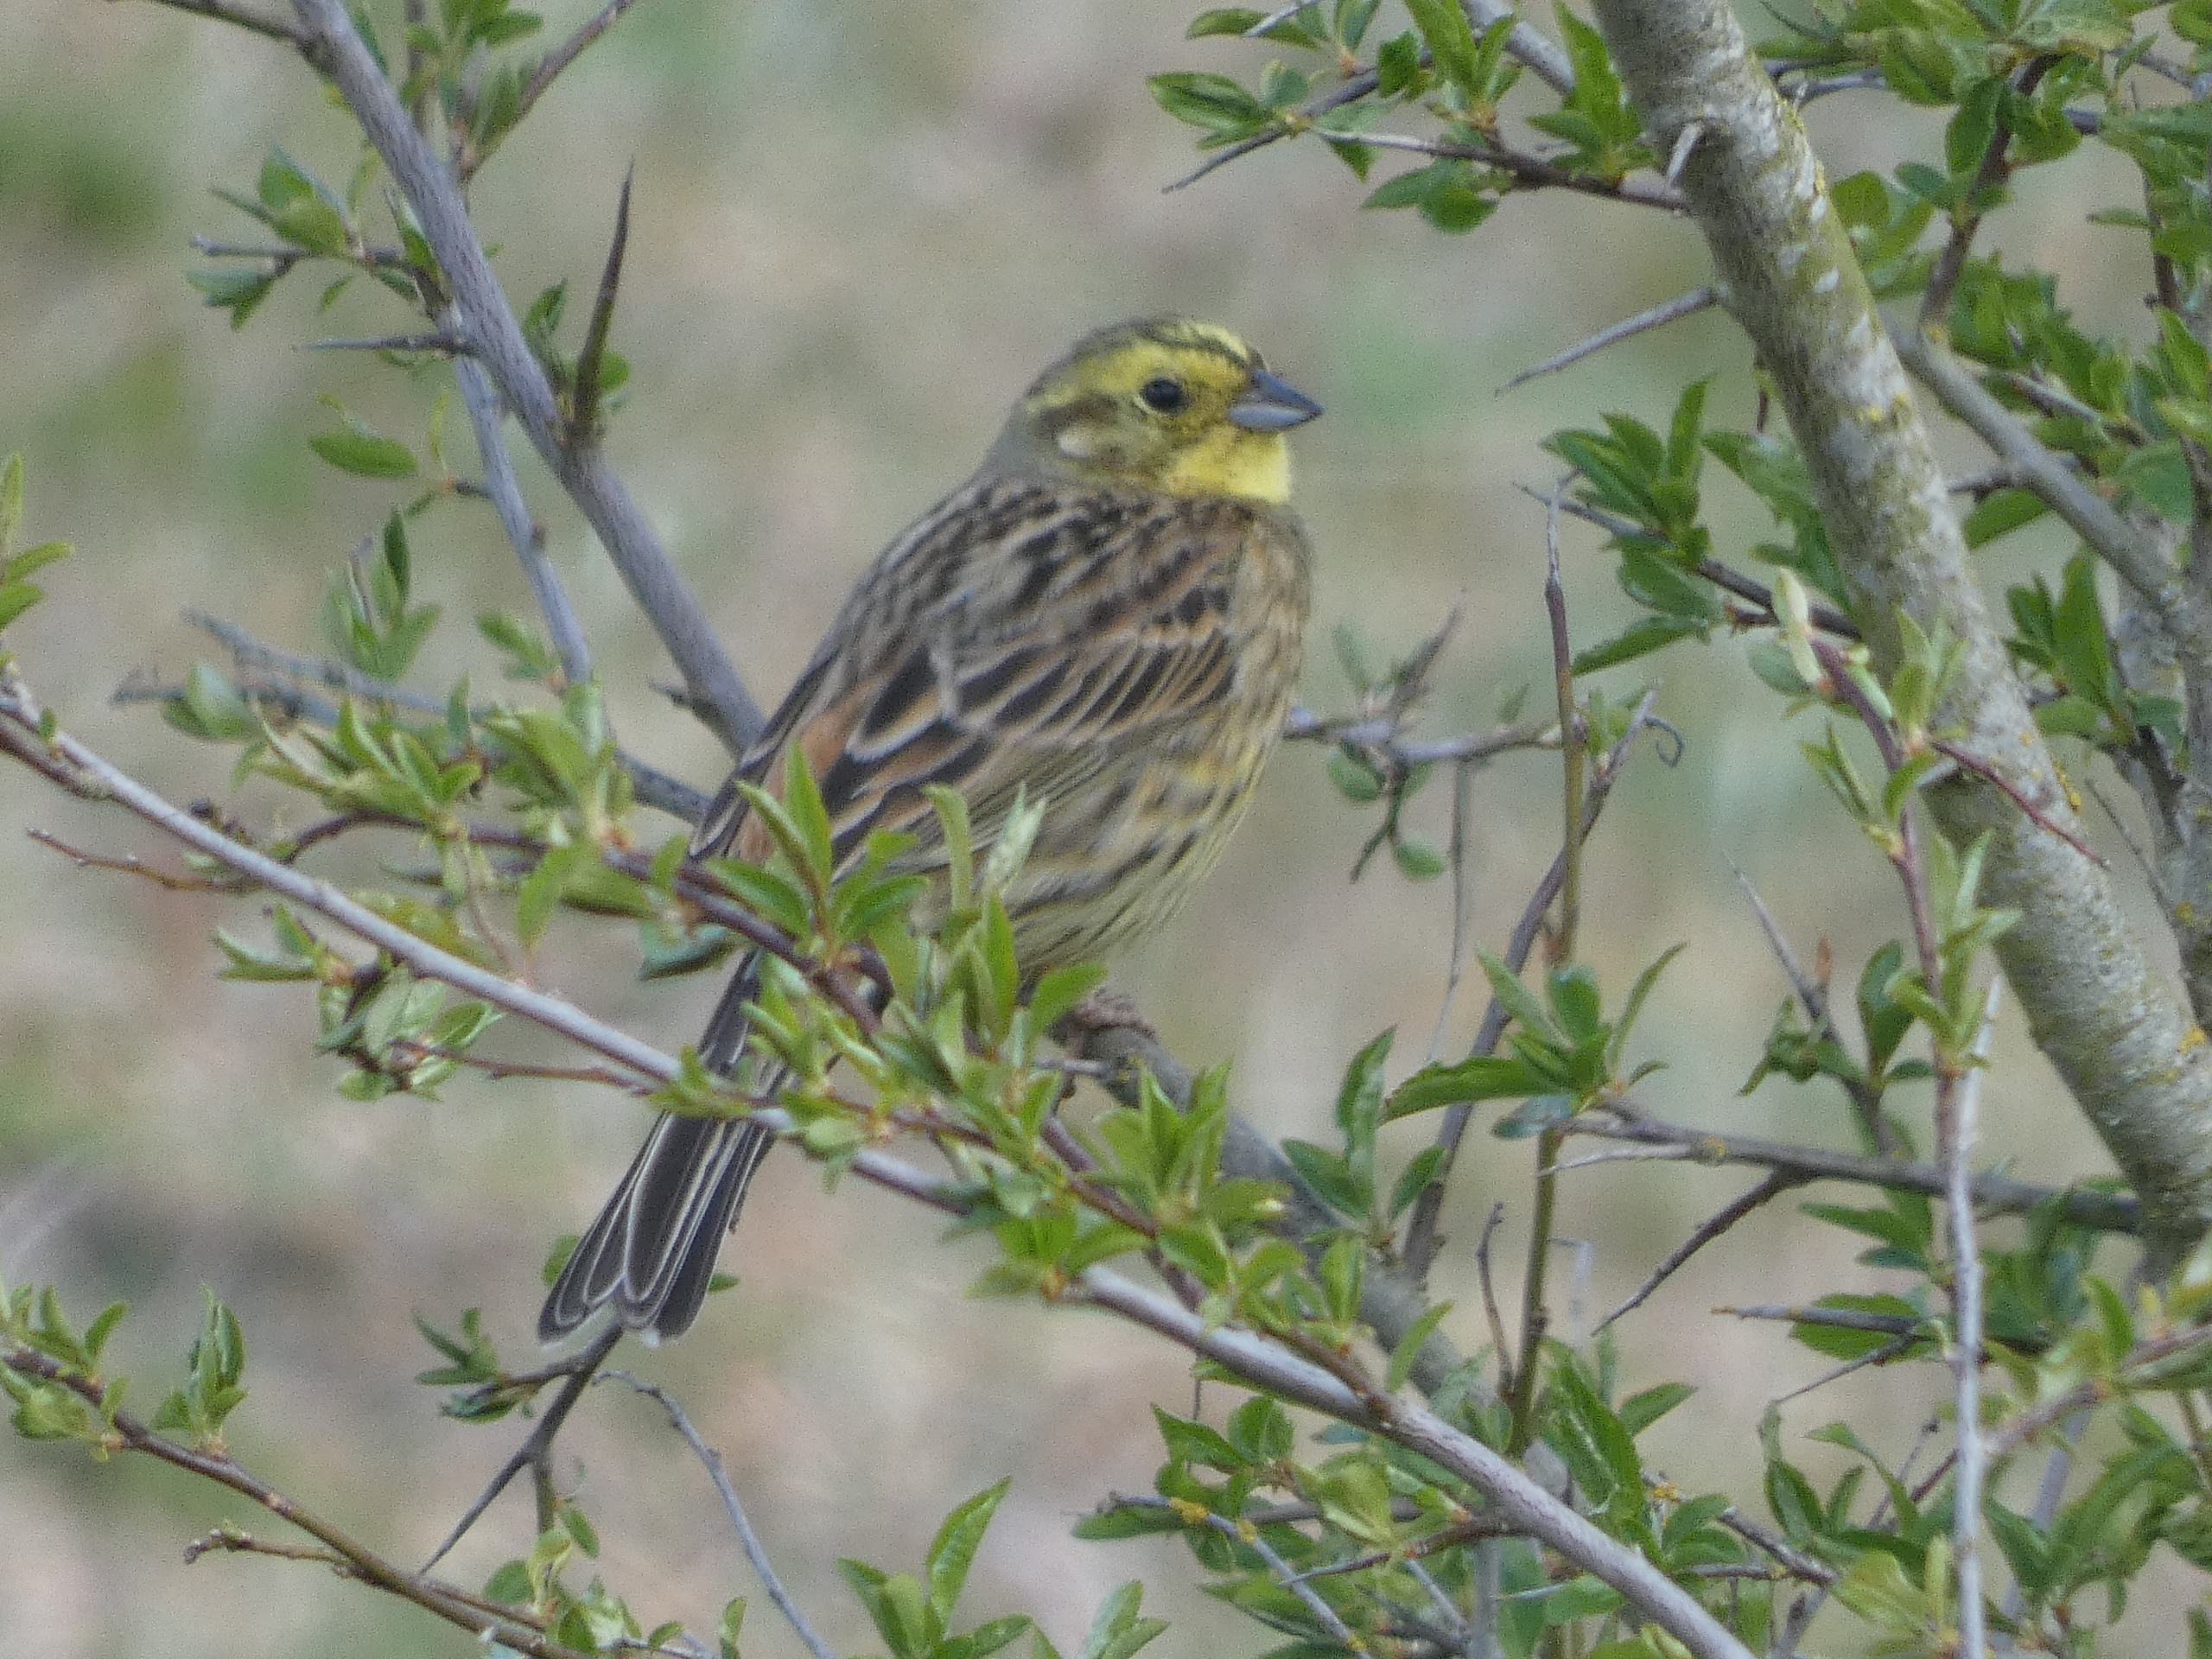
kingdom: Animalia
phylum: Chordata
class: Aves
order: Passeriformes
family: Emberizidae
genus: Emberiza
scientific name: Emberiza citrinella
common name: Gulspurv
